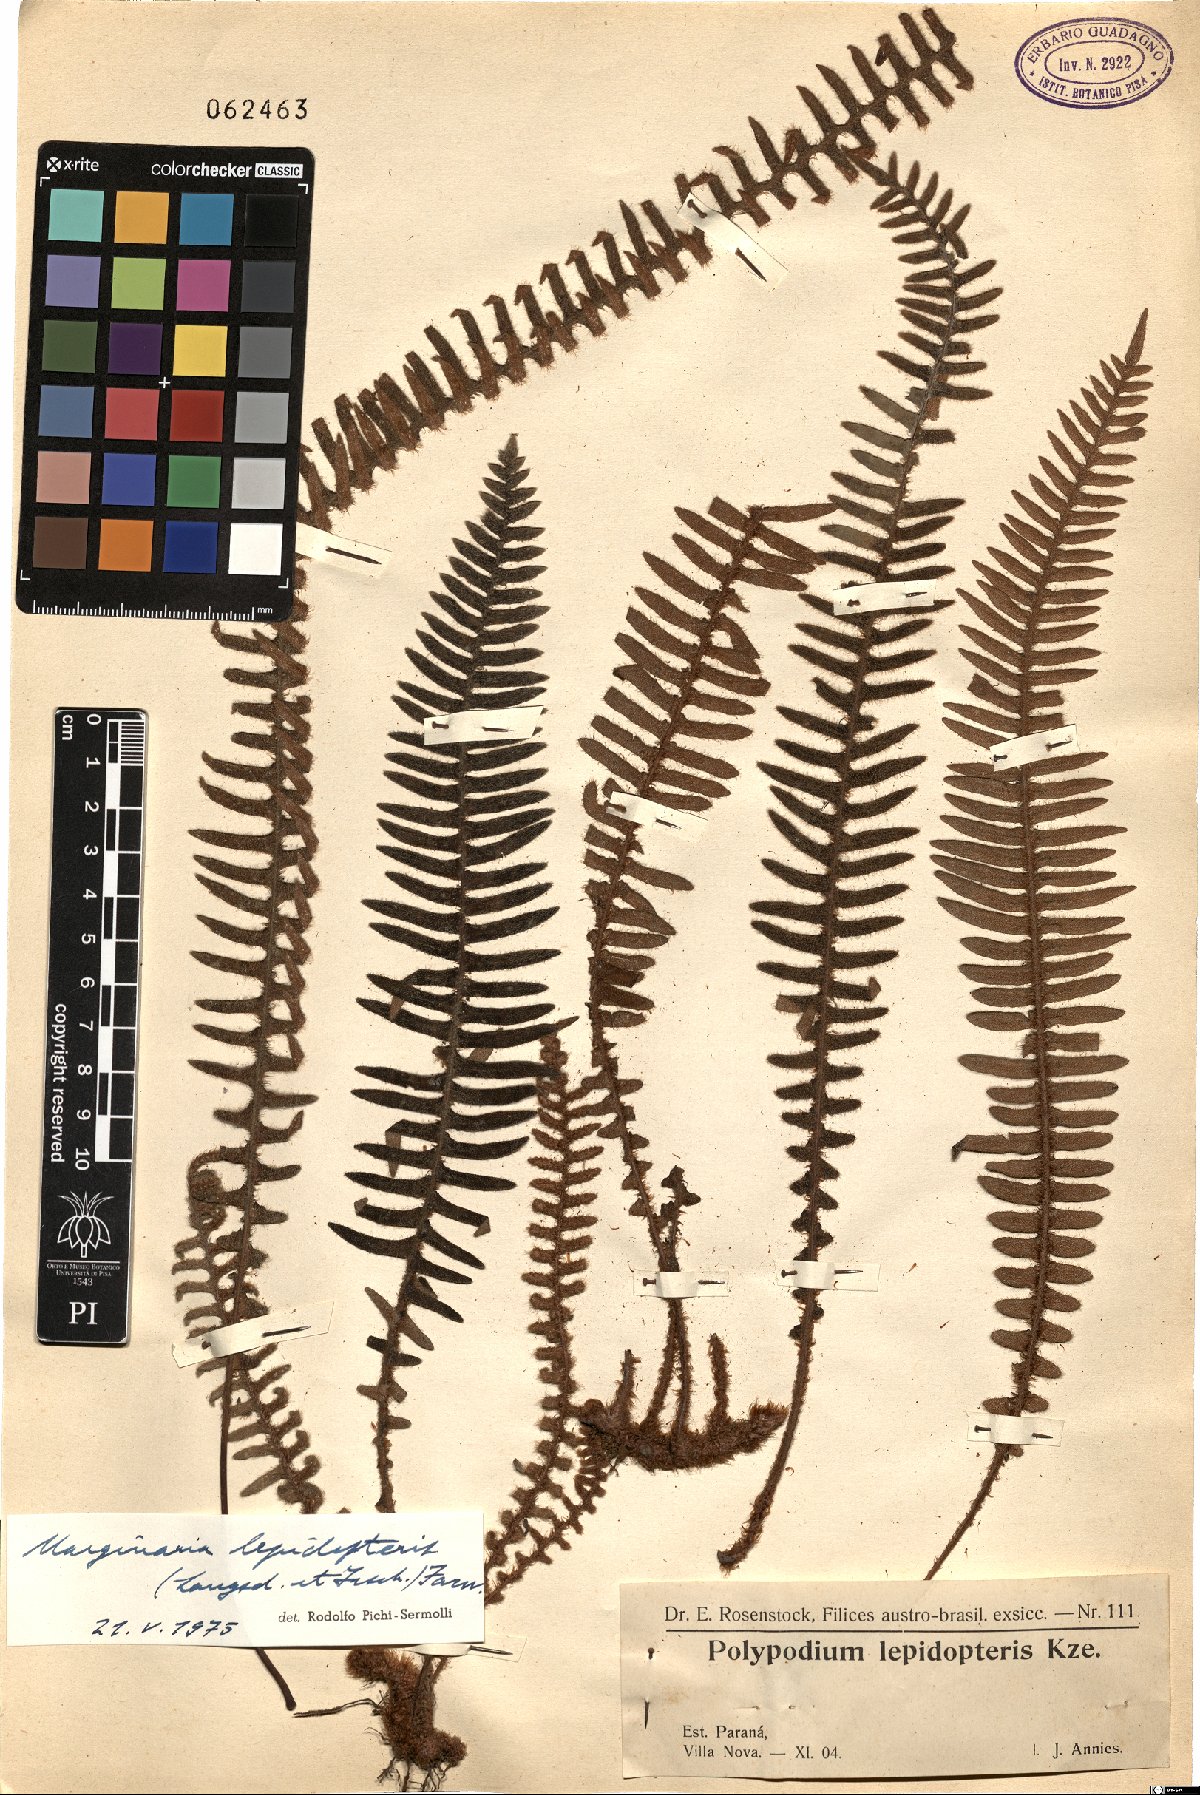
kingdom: Plantae
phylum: Tracheophyta
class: Polypodiopsida
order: Polypodiales
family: Polypodiaceae
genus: Pleopeltis
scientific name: Pleopeltis lepidopteris
